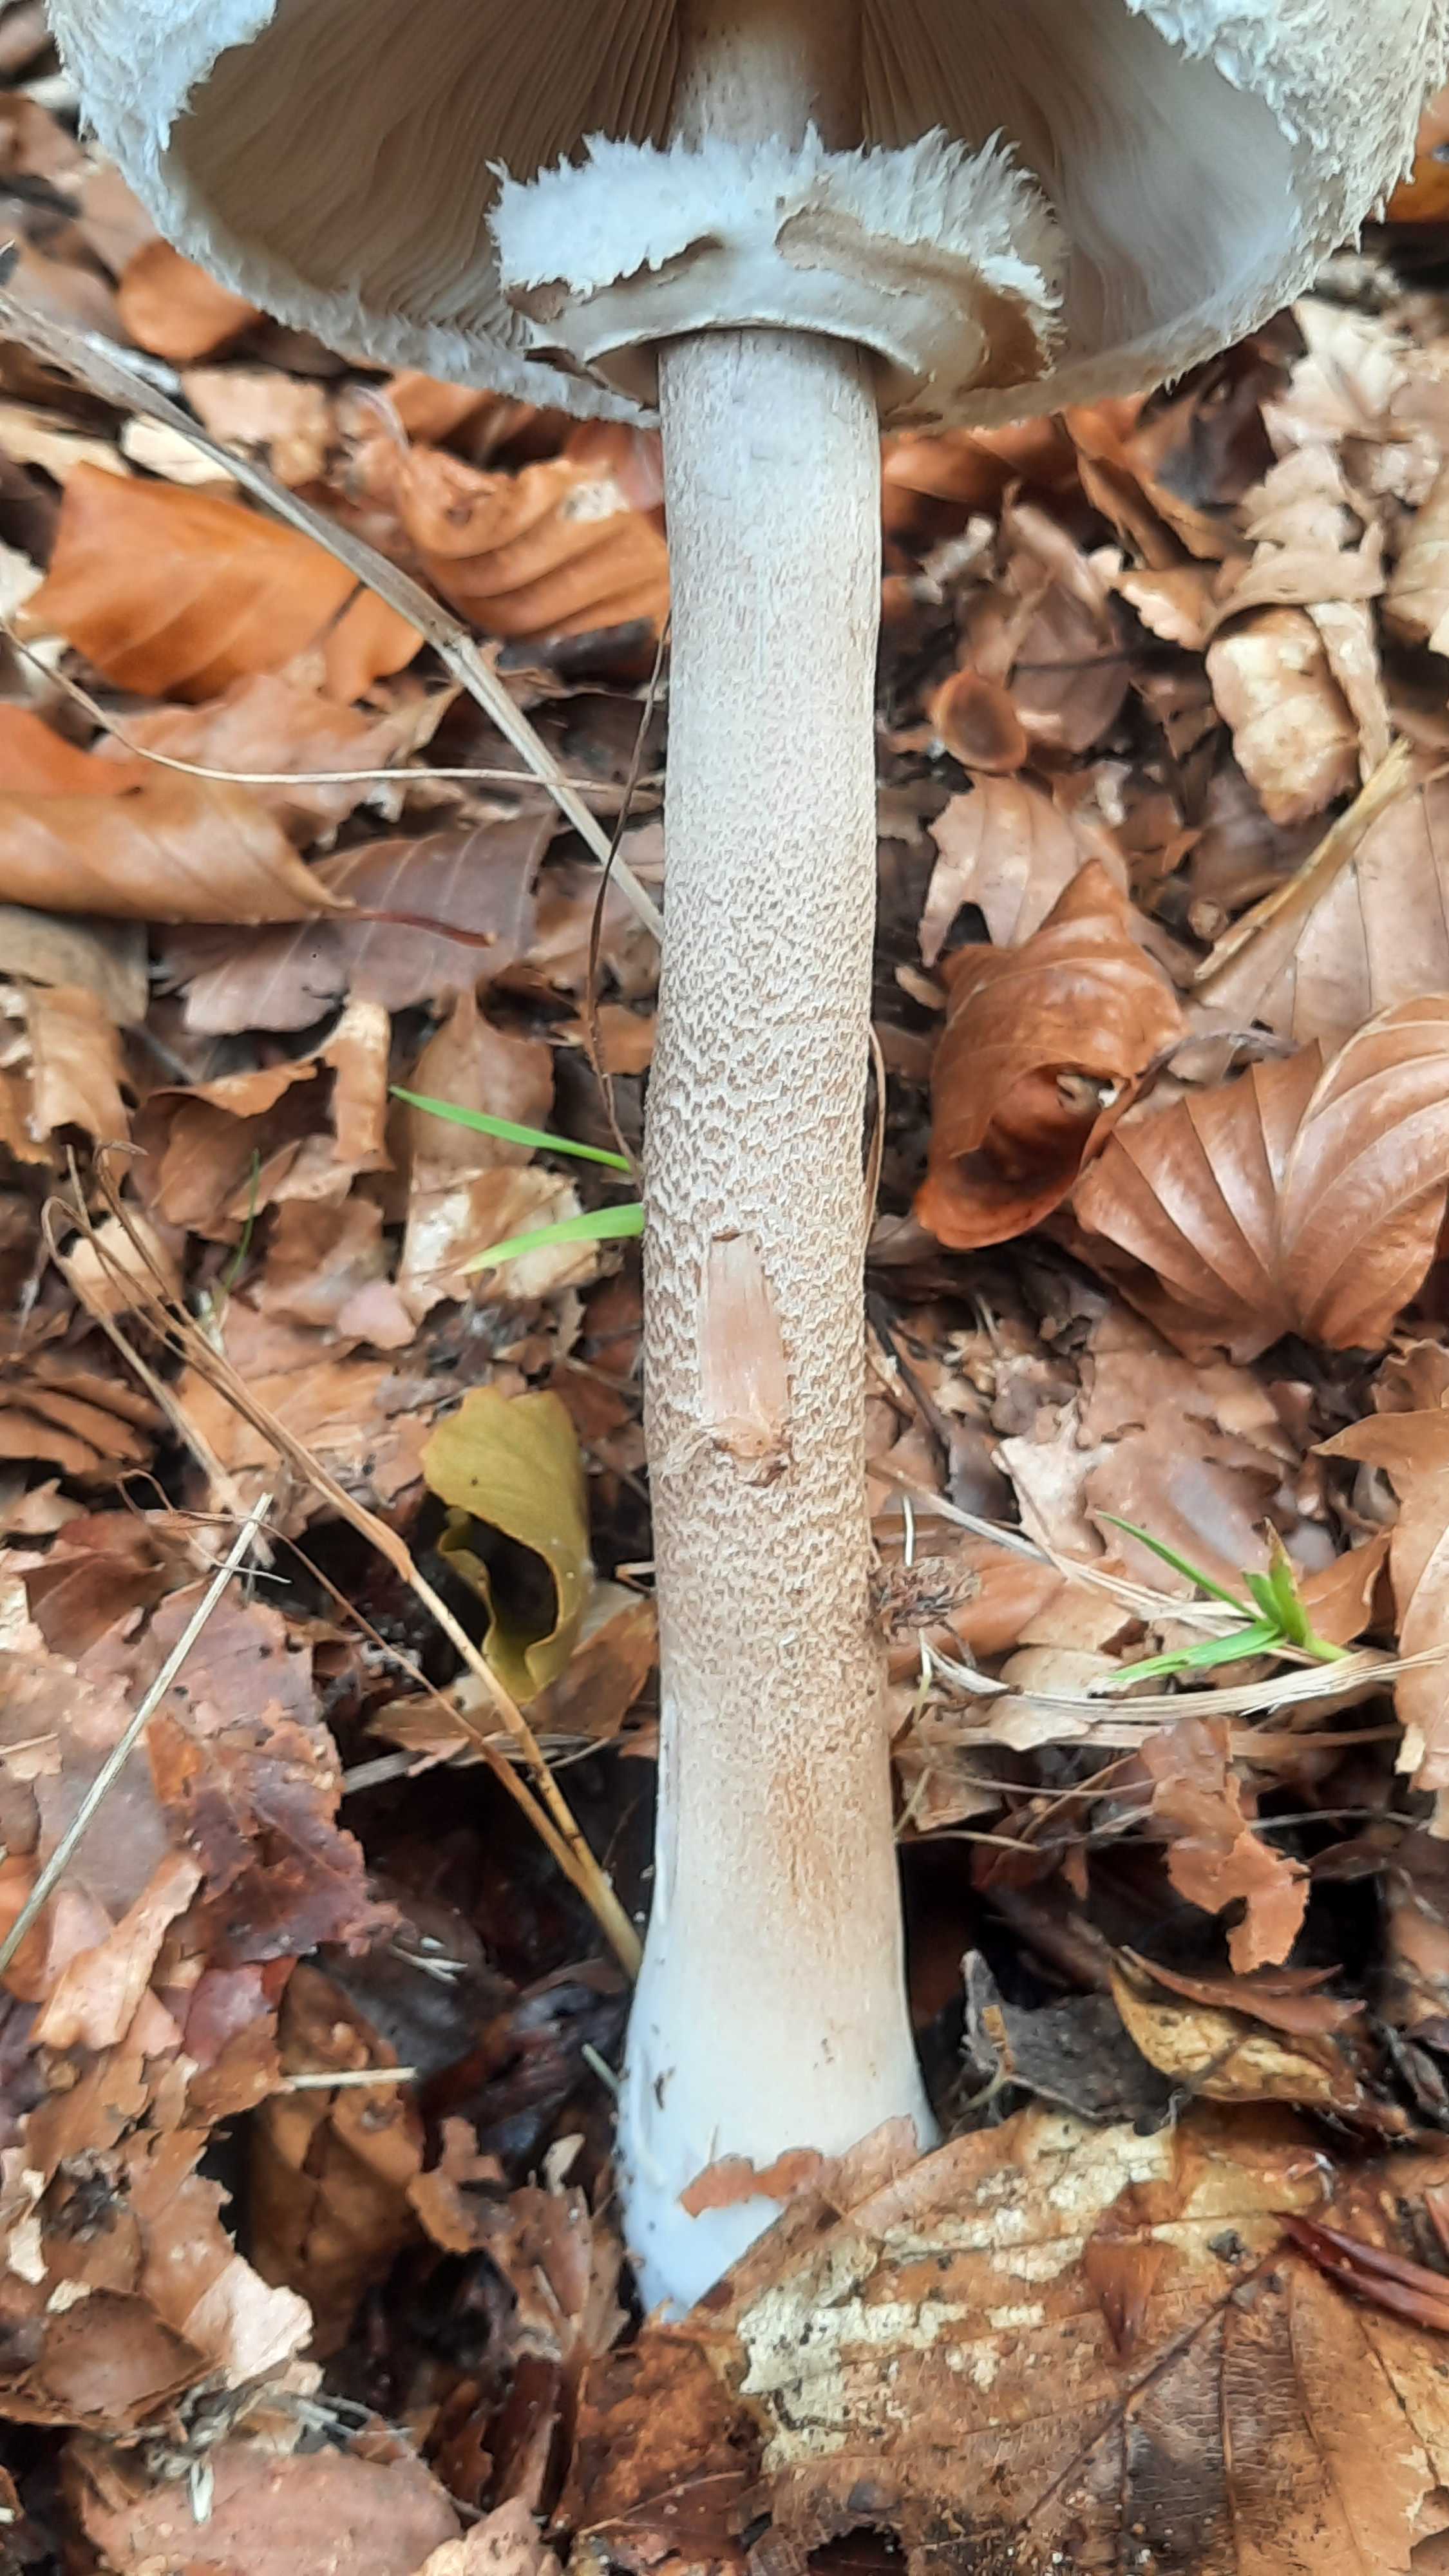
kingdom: Fungi
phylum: Basidiomycota
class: Agaricomycetes
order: Agaricales
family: Agaricaceae
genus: Macrolepiota
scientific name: Macrolepiota mastoidea
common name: puklet kæmpeparasolhat
